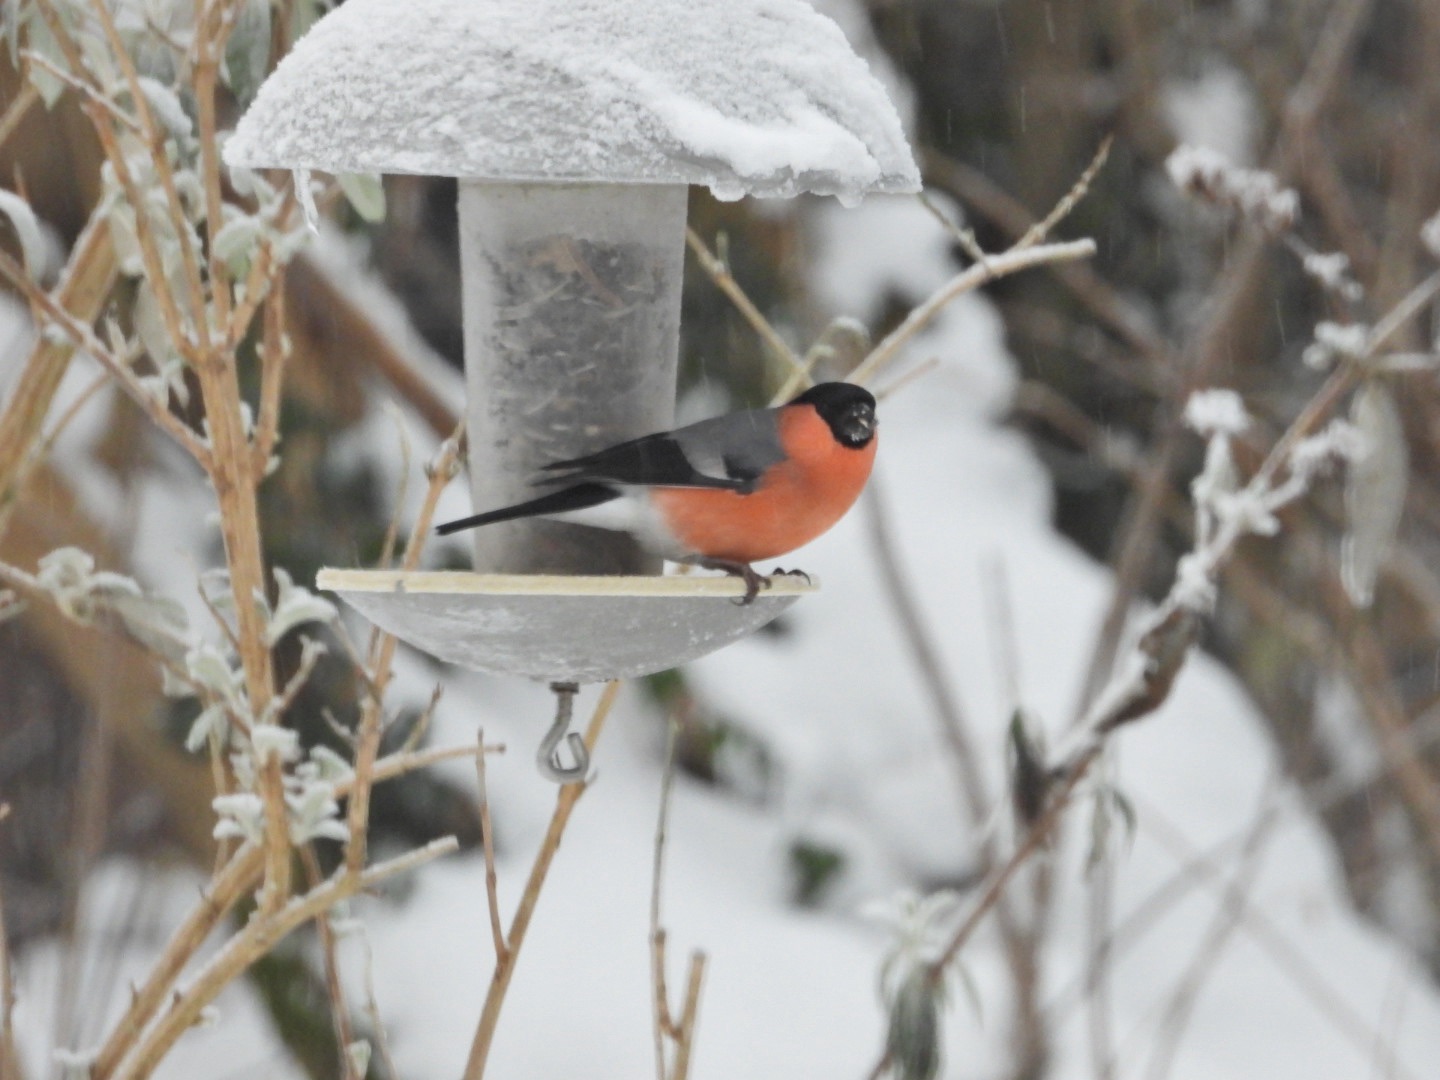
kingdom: Animalia
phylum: Chordata
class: Aves
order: Passeriformes
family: Fringillidae
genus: Pyrrhula
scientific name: Pyrrhula pyrrhula
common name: Dompap
